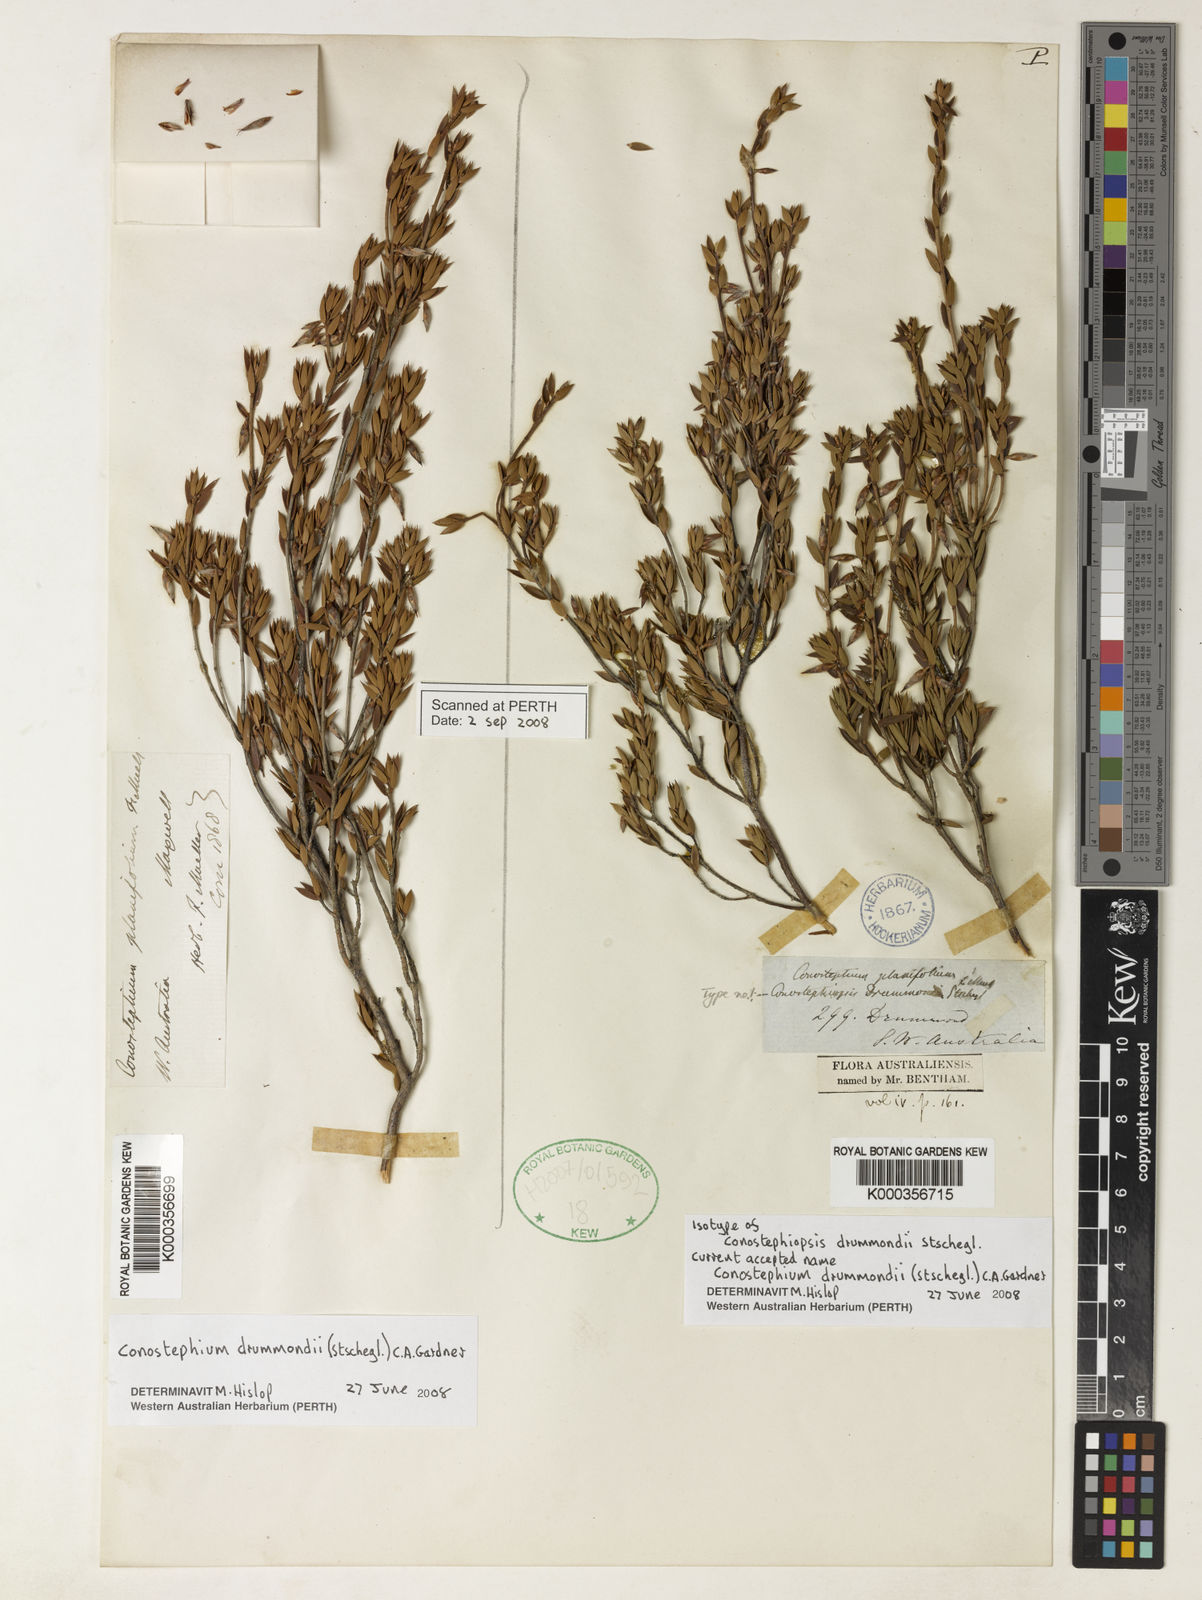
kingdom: Plantae
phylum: Tracheophyta
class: Magnoliopsida
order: Ericales
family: Ericaceae
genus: Conostephium
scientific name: Conostephium drummondii
